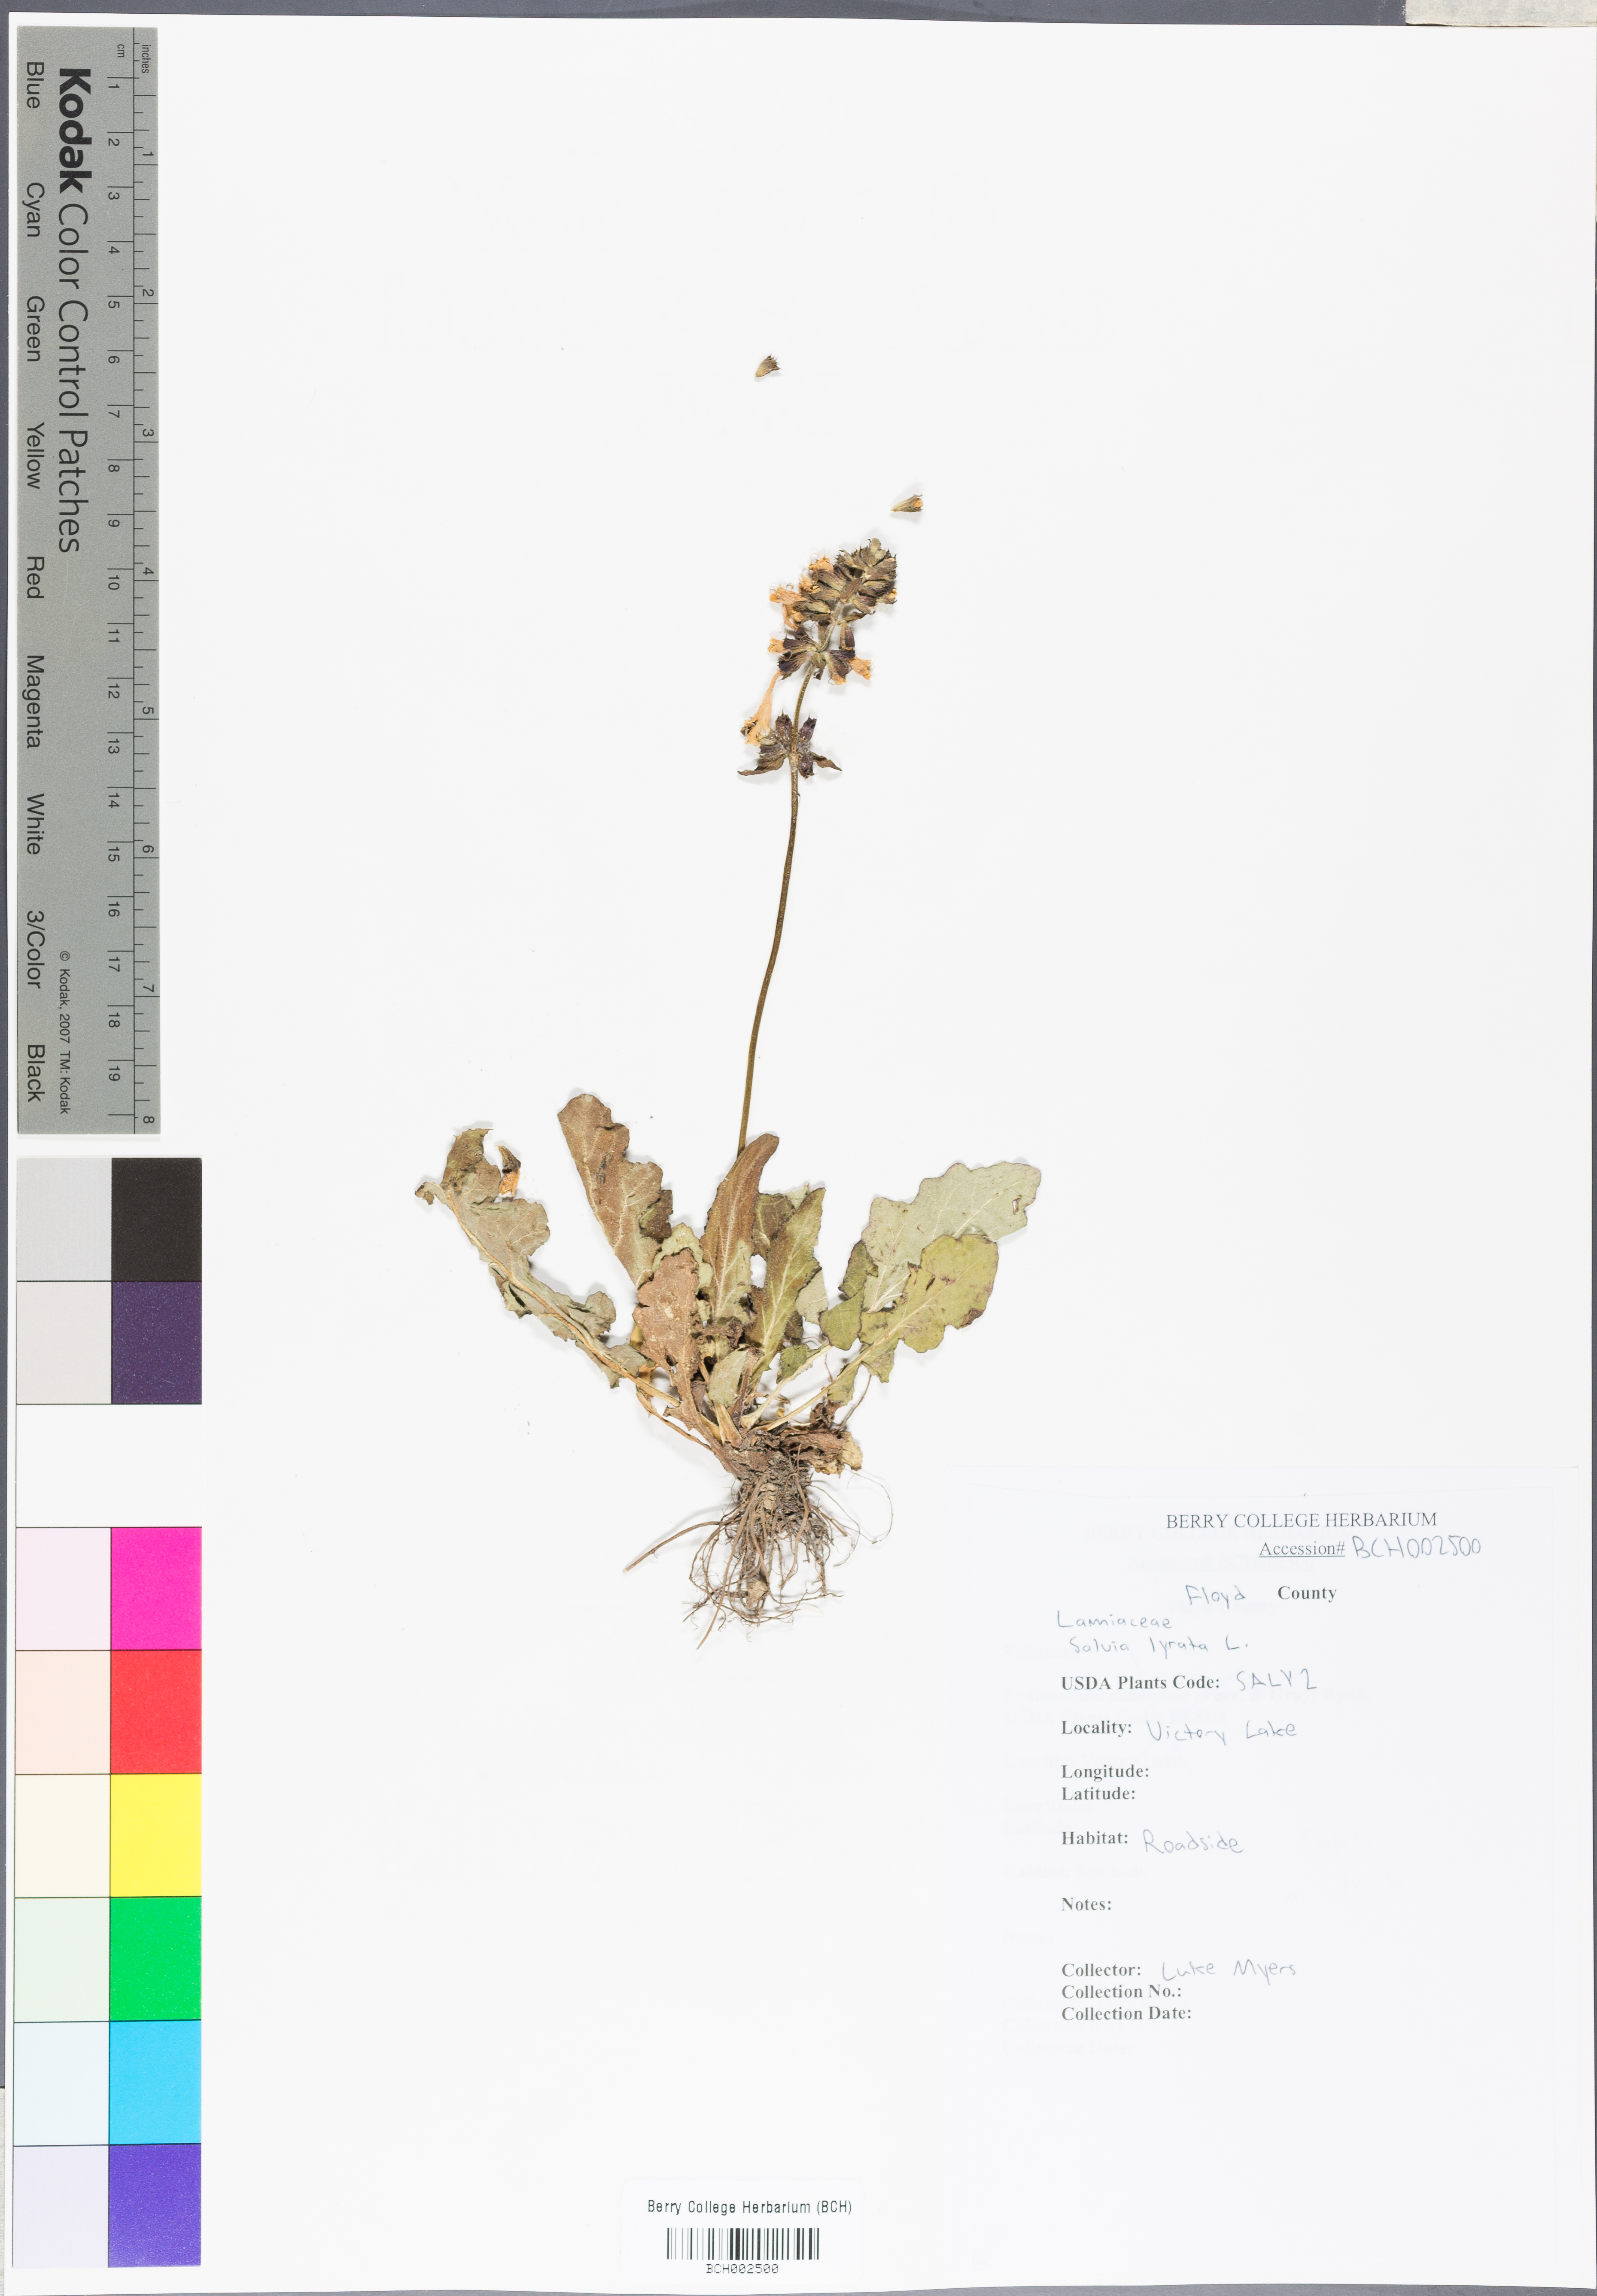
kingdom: Plantae
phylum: Tracheophyta
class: Magnoliopsida
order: Lamiales
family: Lamiaceae
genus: Salvia
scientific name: Salvia lyrata
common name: Cancerweed
